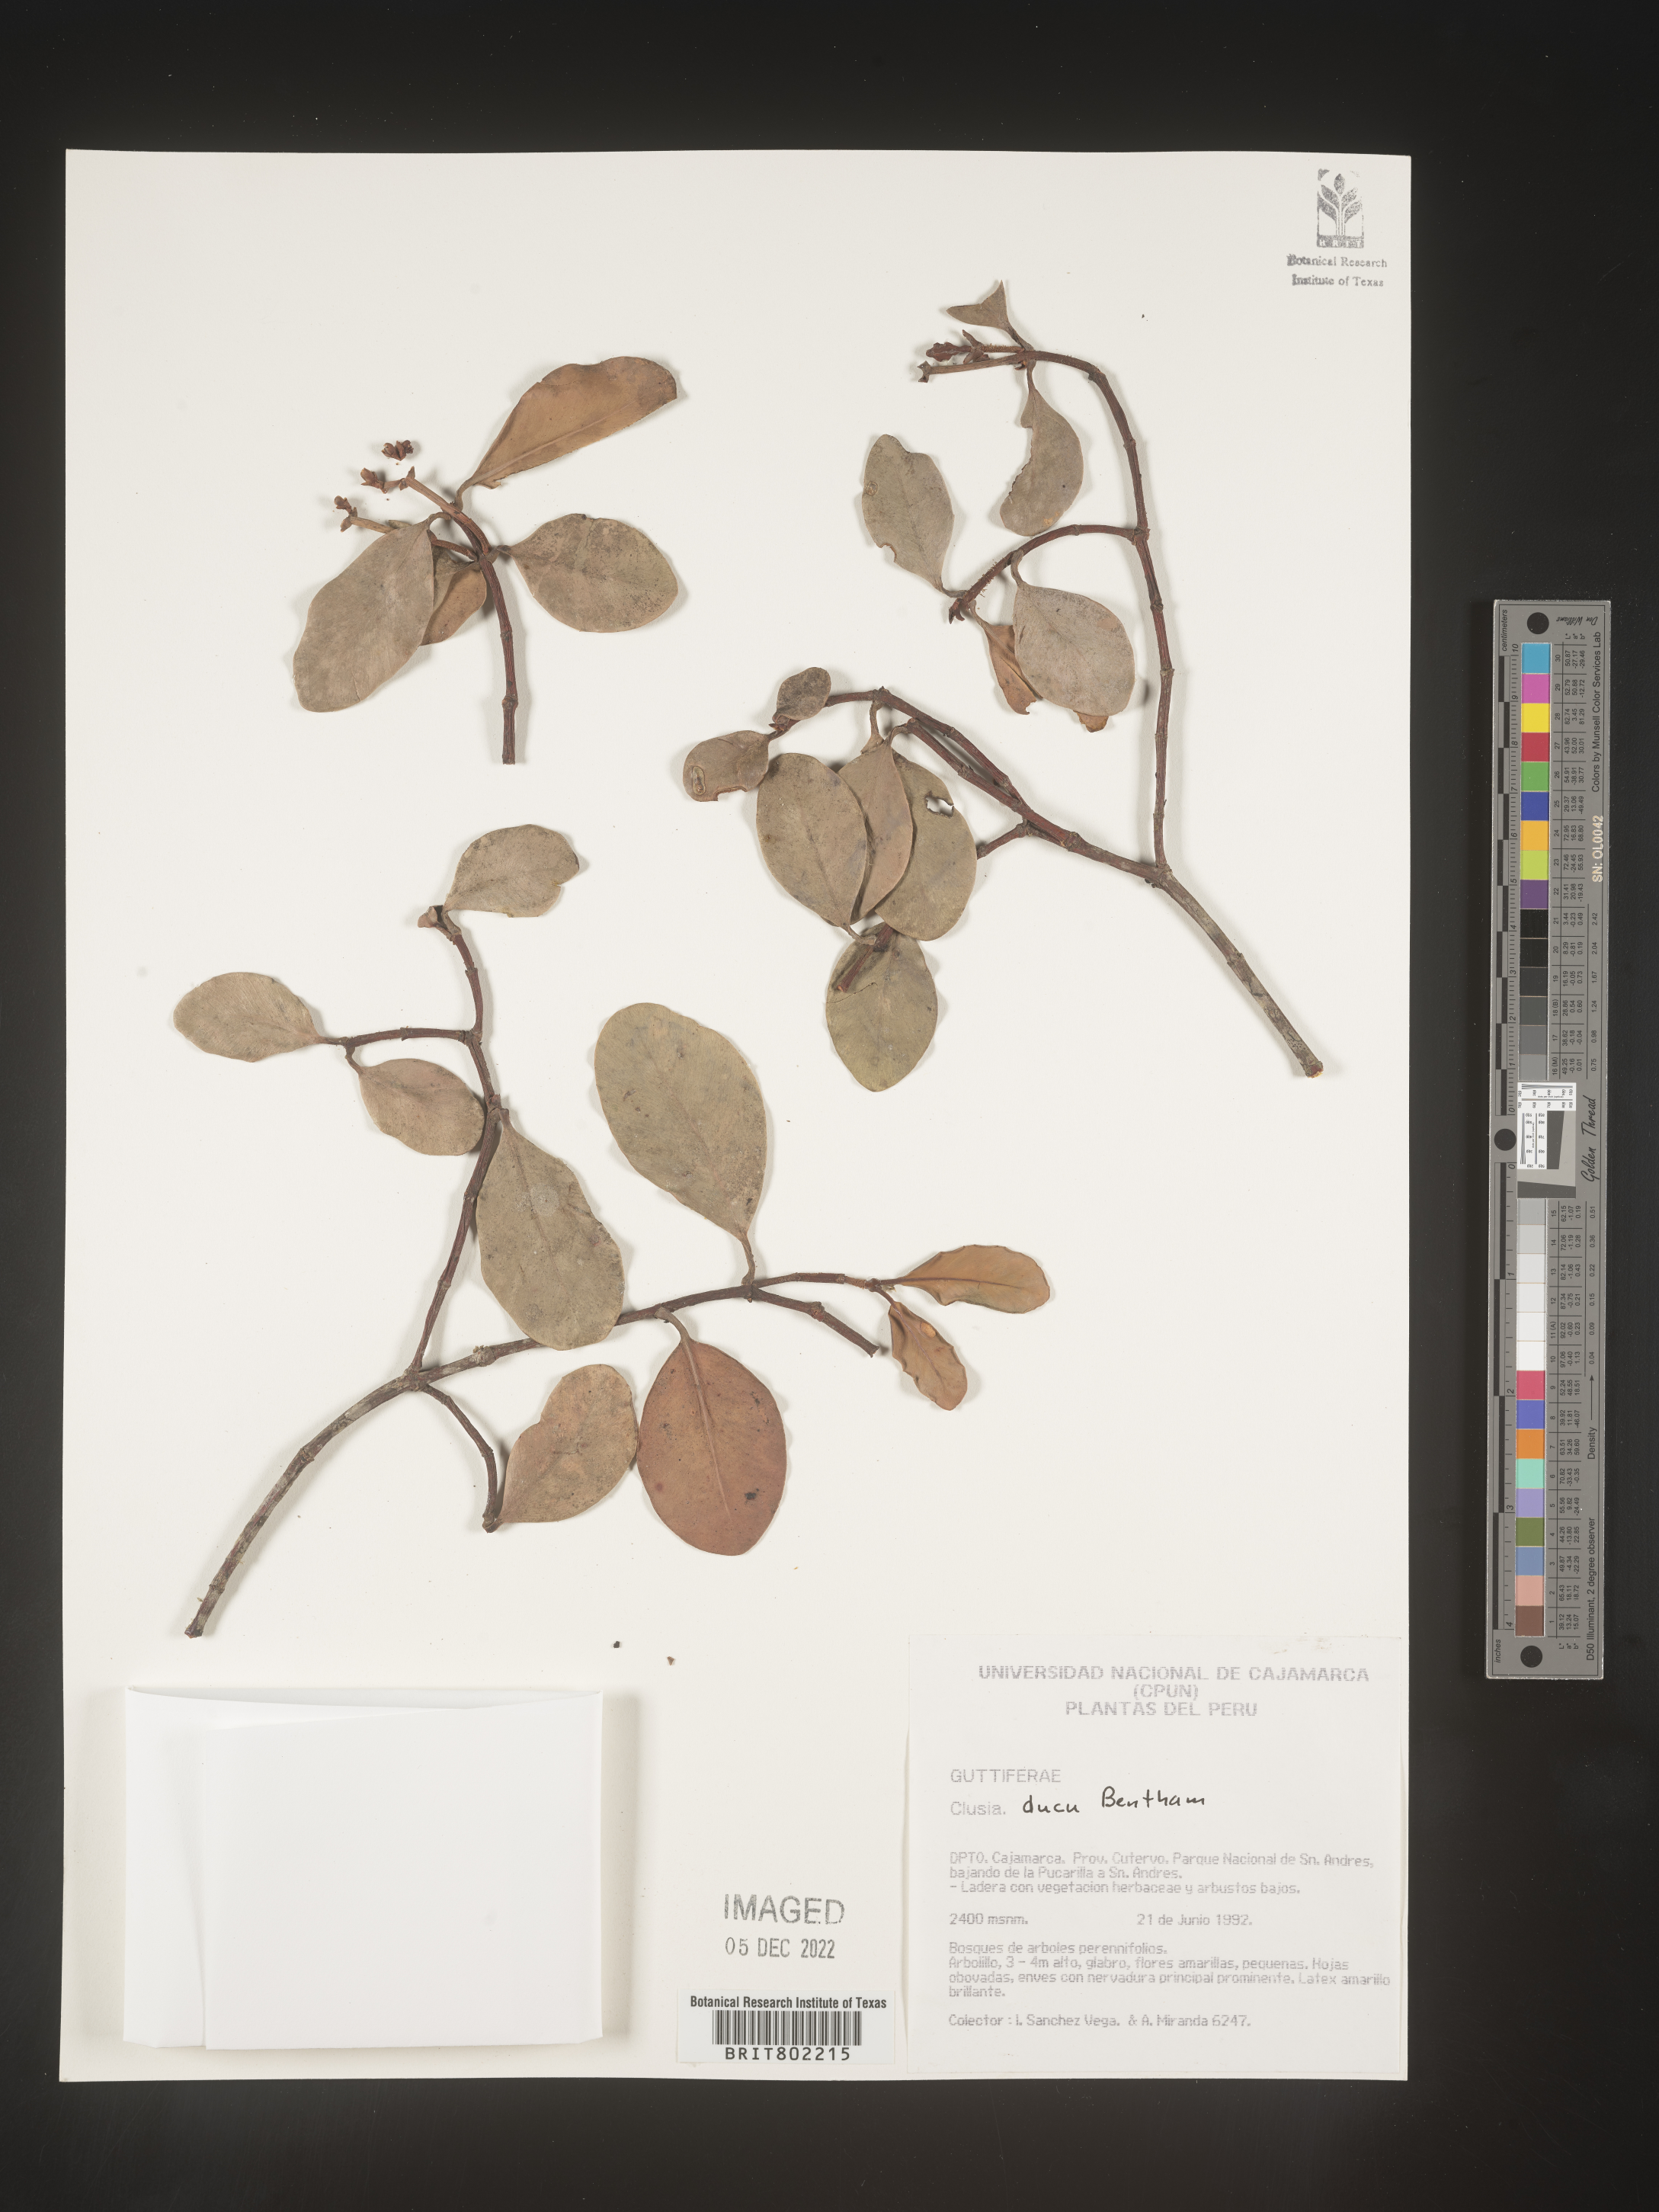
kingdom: Plantae
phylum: Tracheophyta
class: Magnoliopsida
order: Malpighiales
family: Clusiaceae
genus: Clusia
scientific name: Clusia ducu
